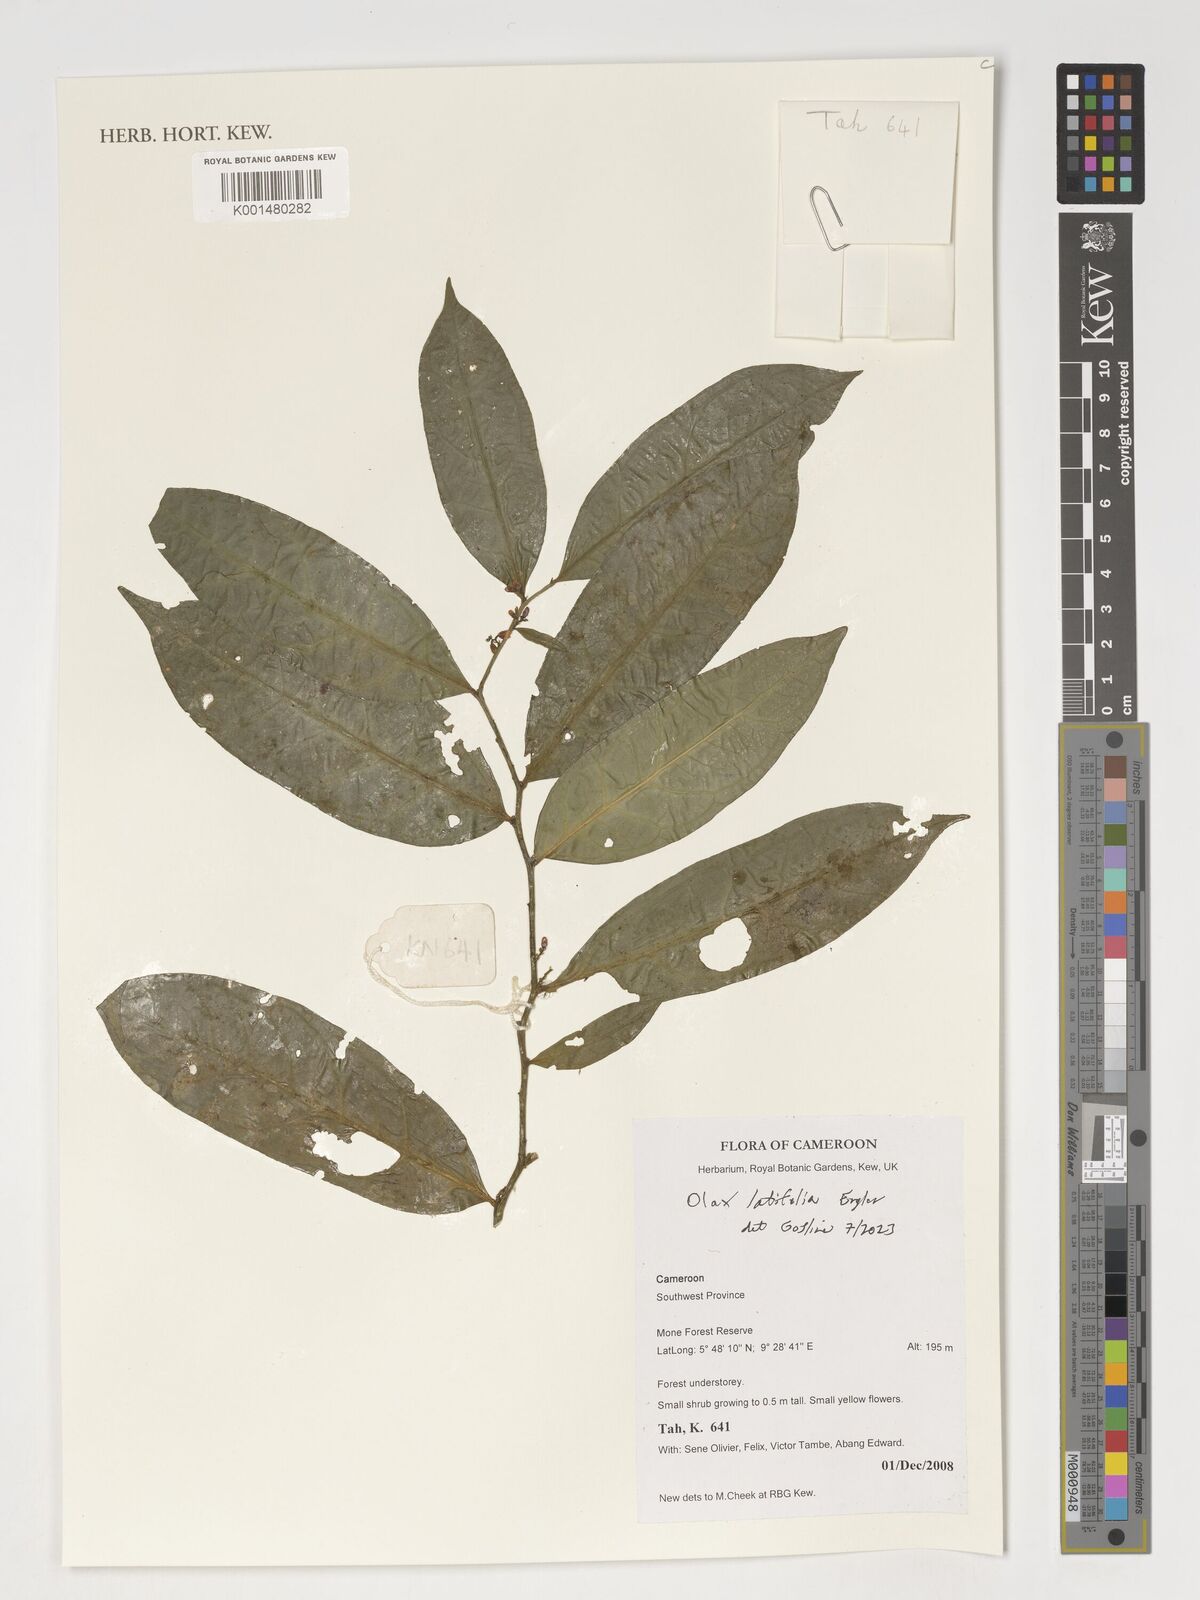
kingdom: Plantae
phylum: Tracheophyta
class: Magnoliopsida
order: Santalales
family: Olacaceae
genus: Olax
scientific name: Olax latifolia
